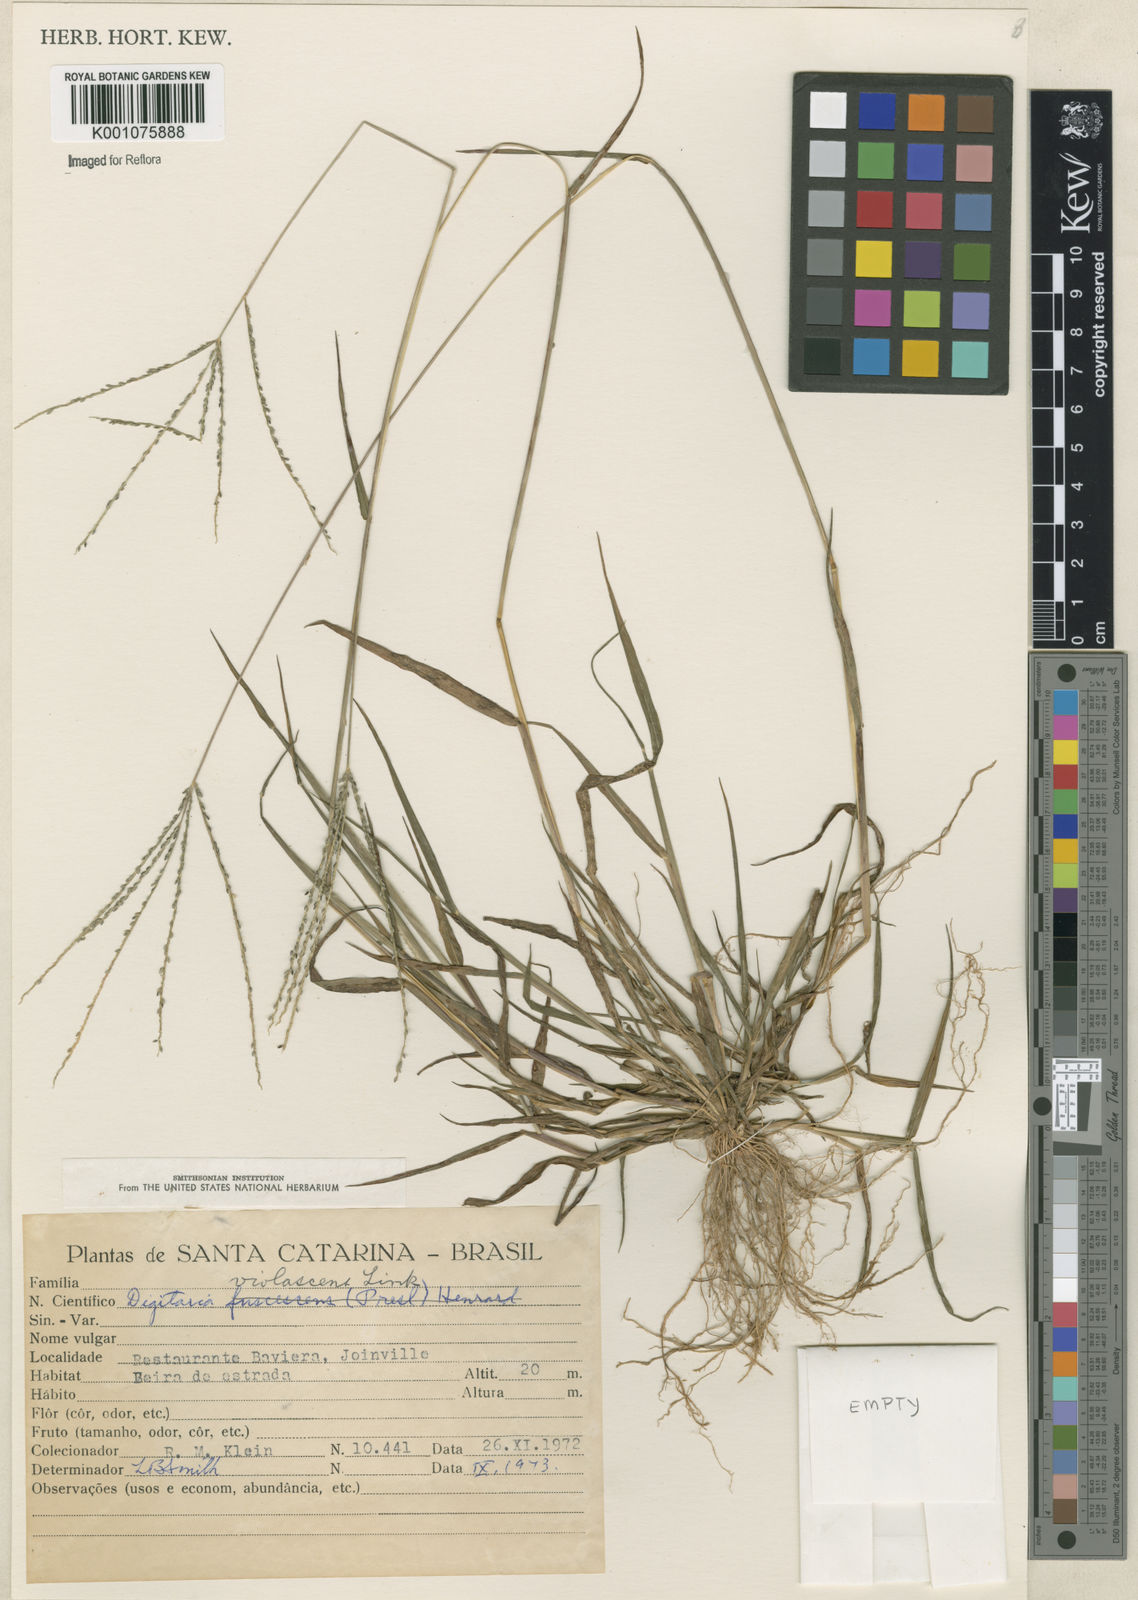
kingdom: Plantae
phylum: Tracheophyta
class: Liliopsida
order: Poales
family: Poaceae
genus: Digitaria
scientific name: Digitaria violascens
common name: Violet crabgrass
